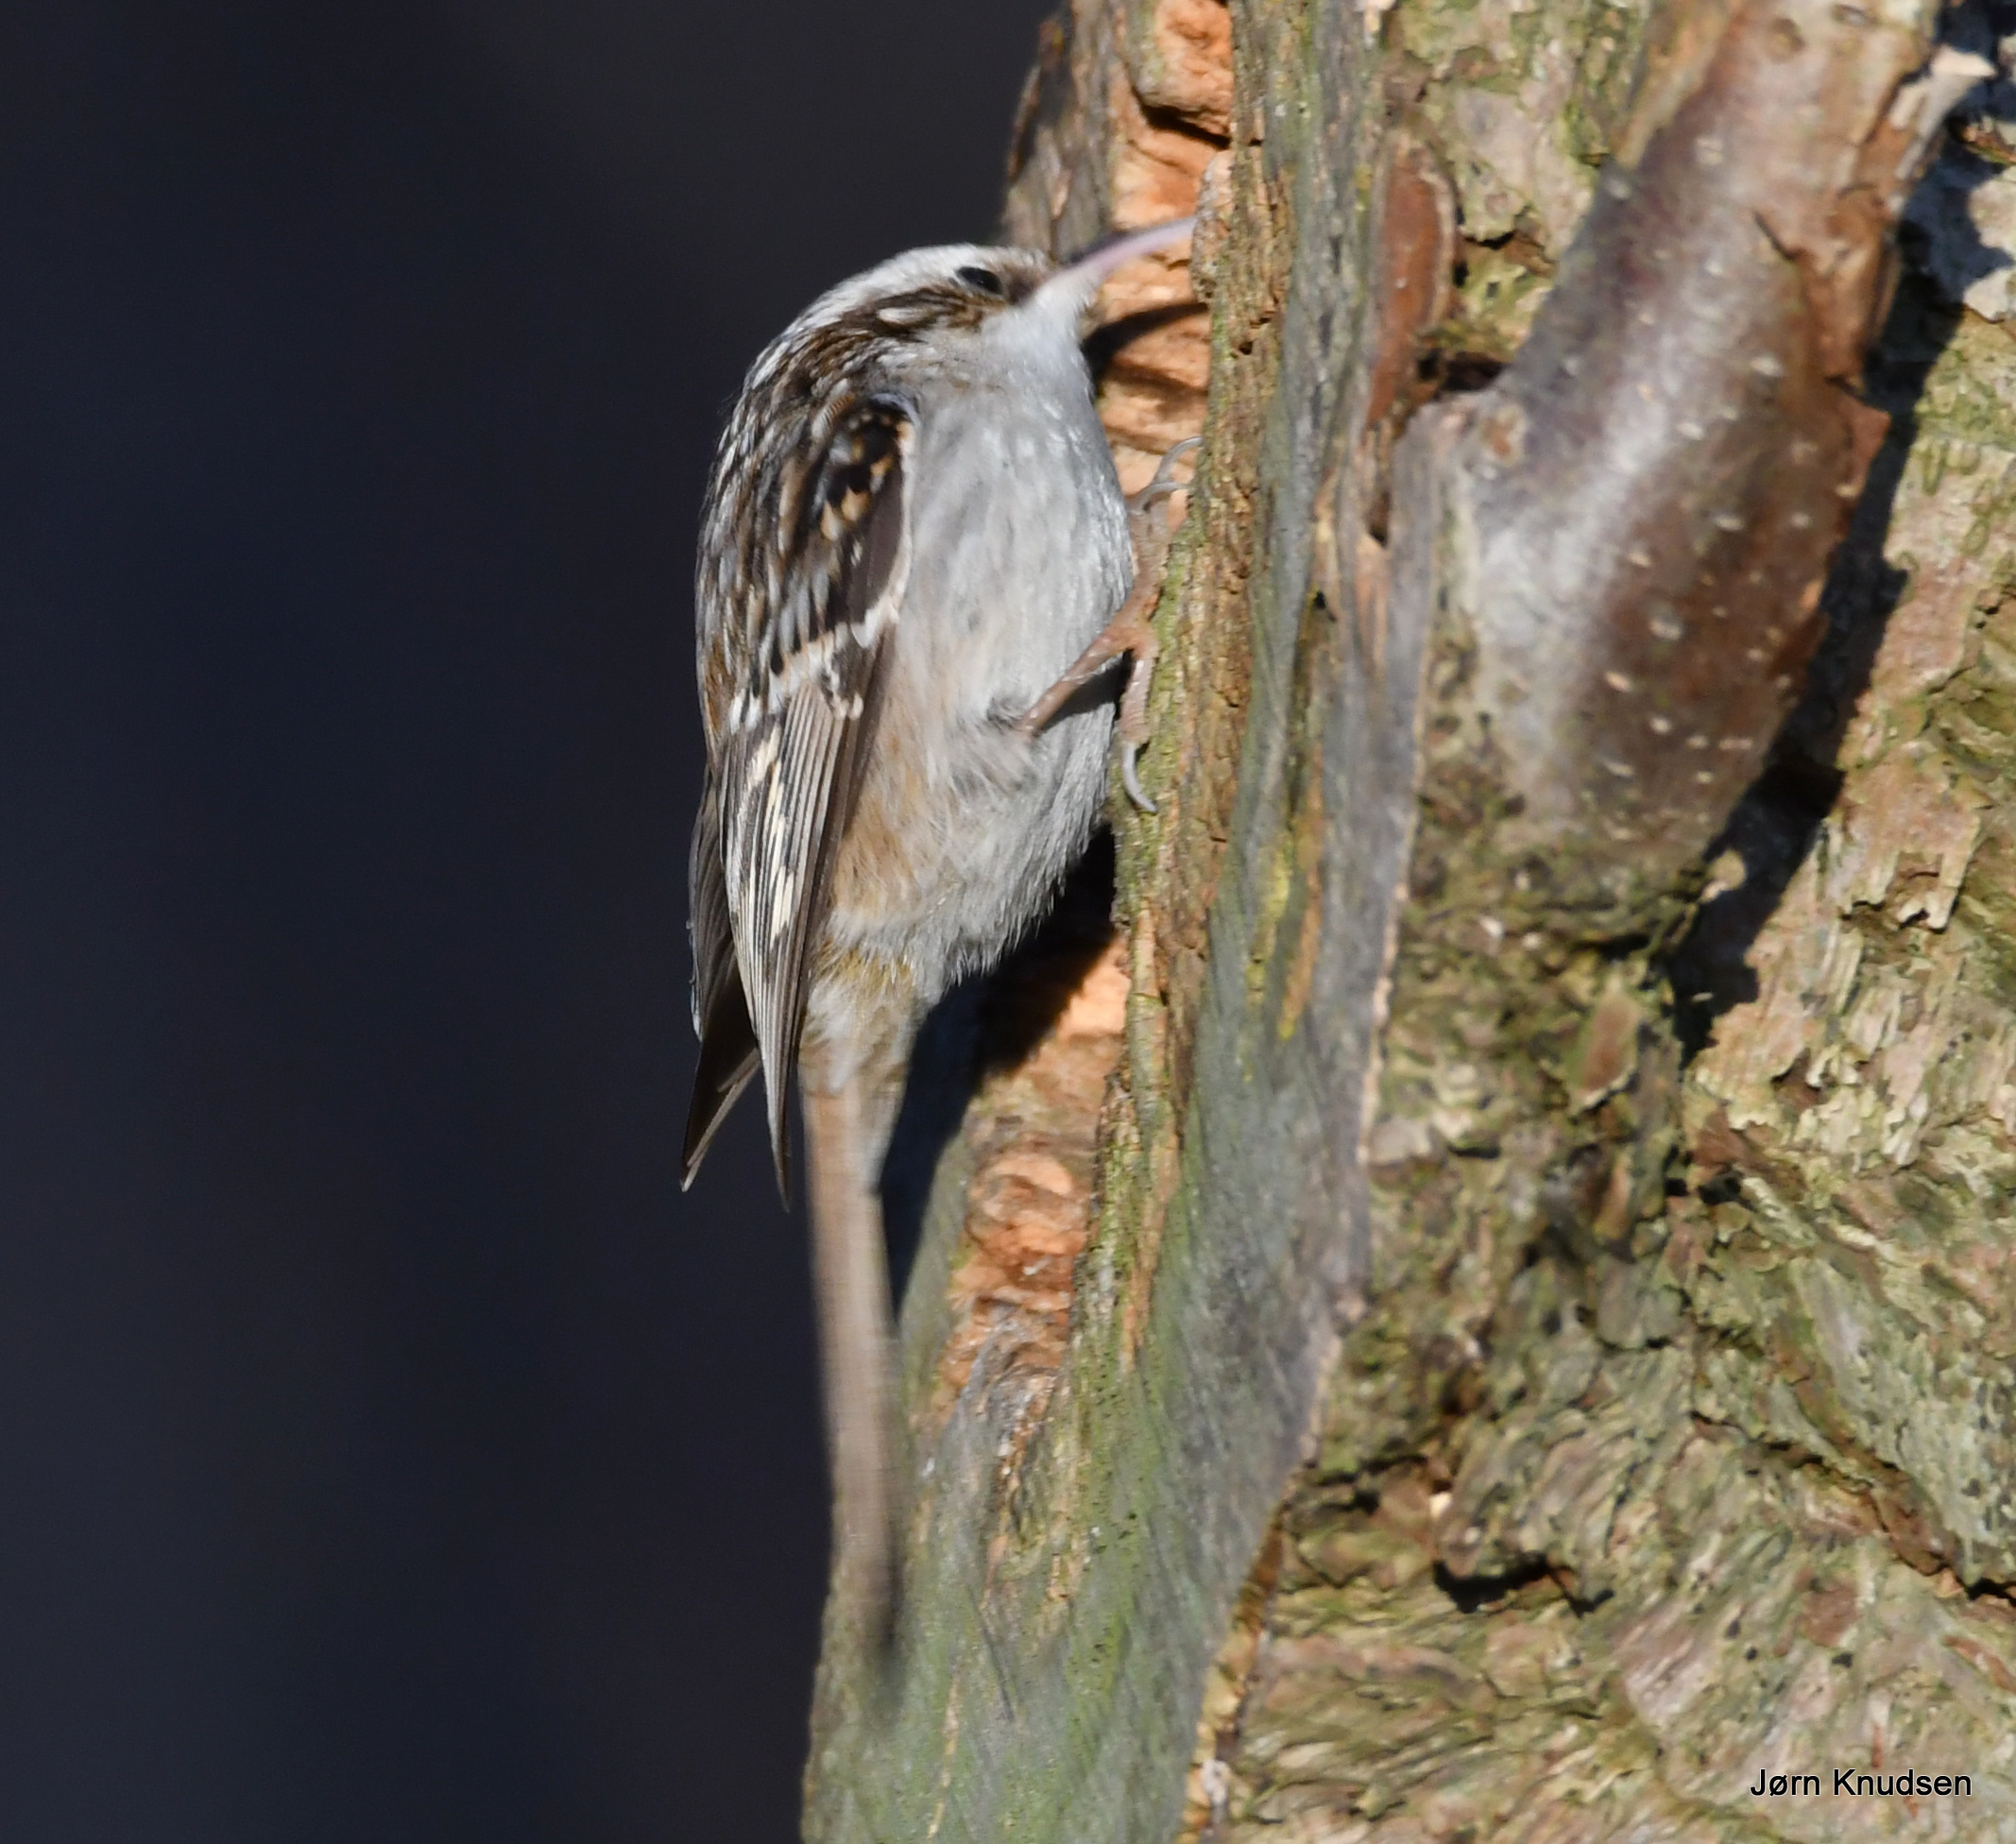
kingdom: Animalia
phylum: Chordata
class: Aves
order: Passeriformes
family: Certhiidae
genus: Certhia
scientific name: Certhia brachydactyla
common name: Korttået træløber
